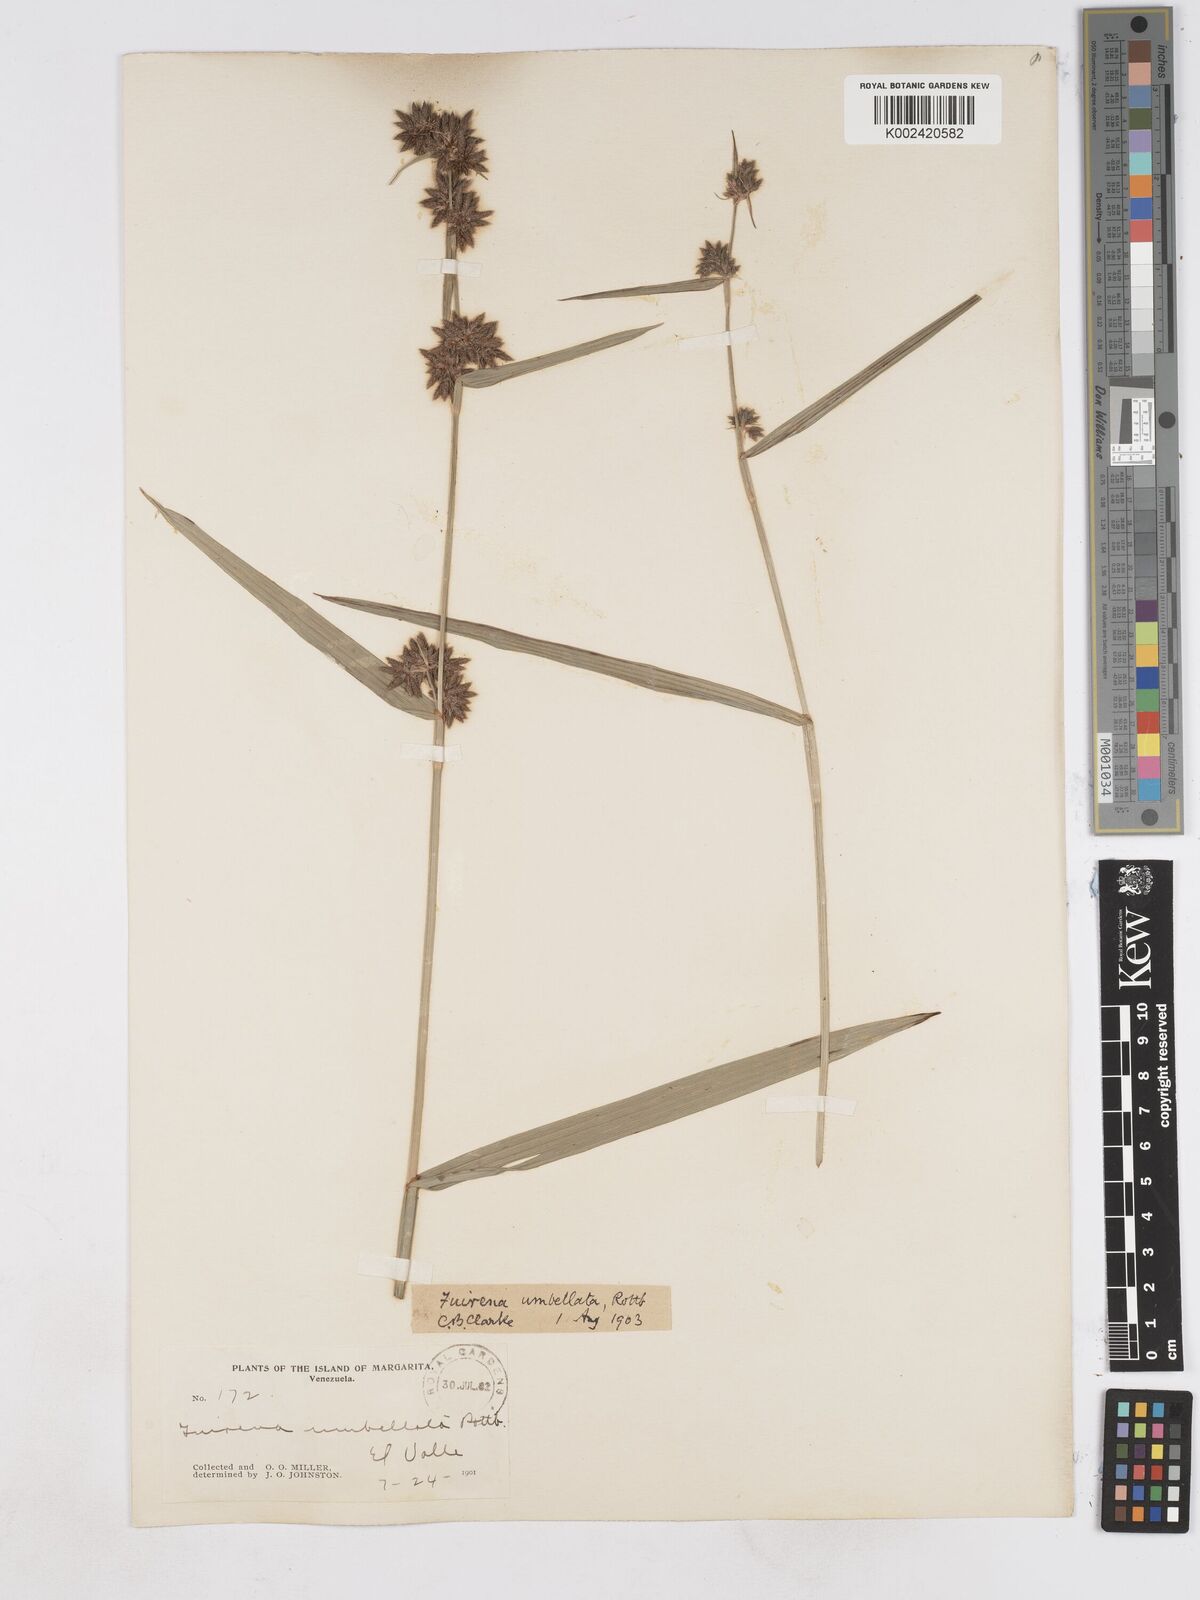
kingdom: Plantae
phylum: Tracheophyta
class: Liliopsida
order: Poales
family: Cyperaceae
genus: Fuirena
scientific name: Fuirena umbellata
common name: Yefen
